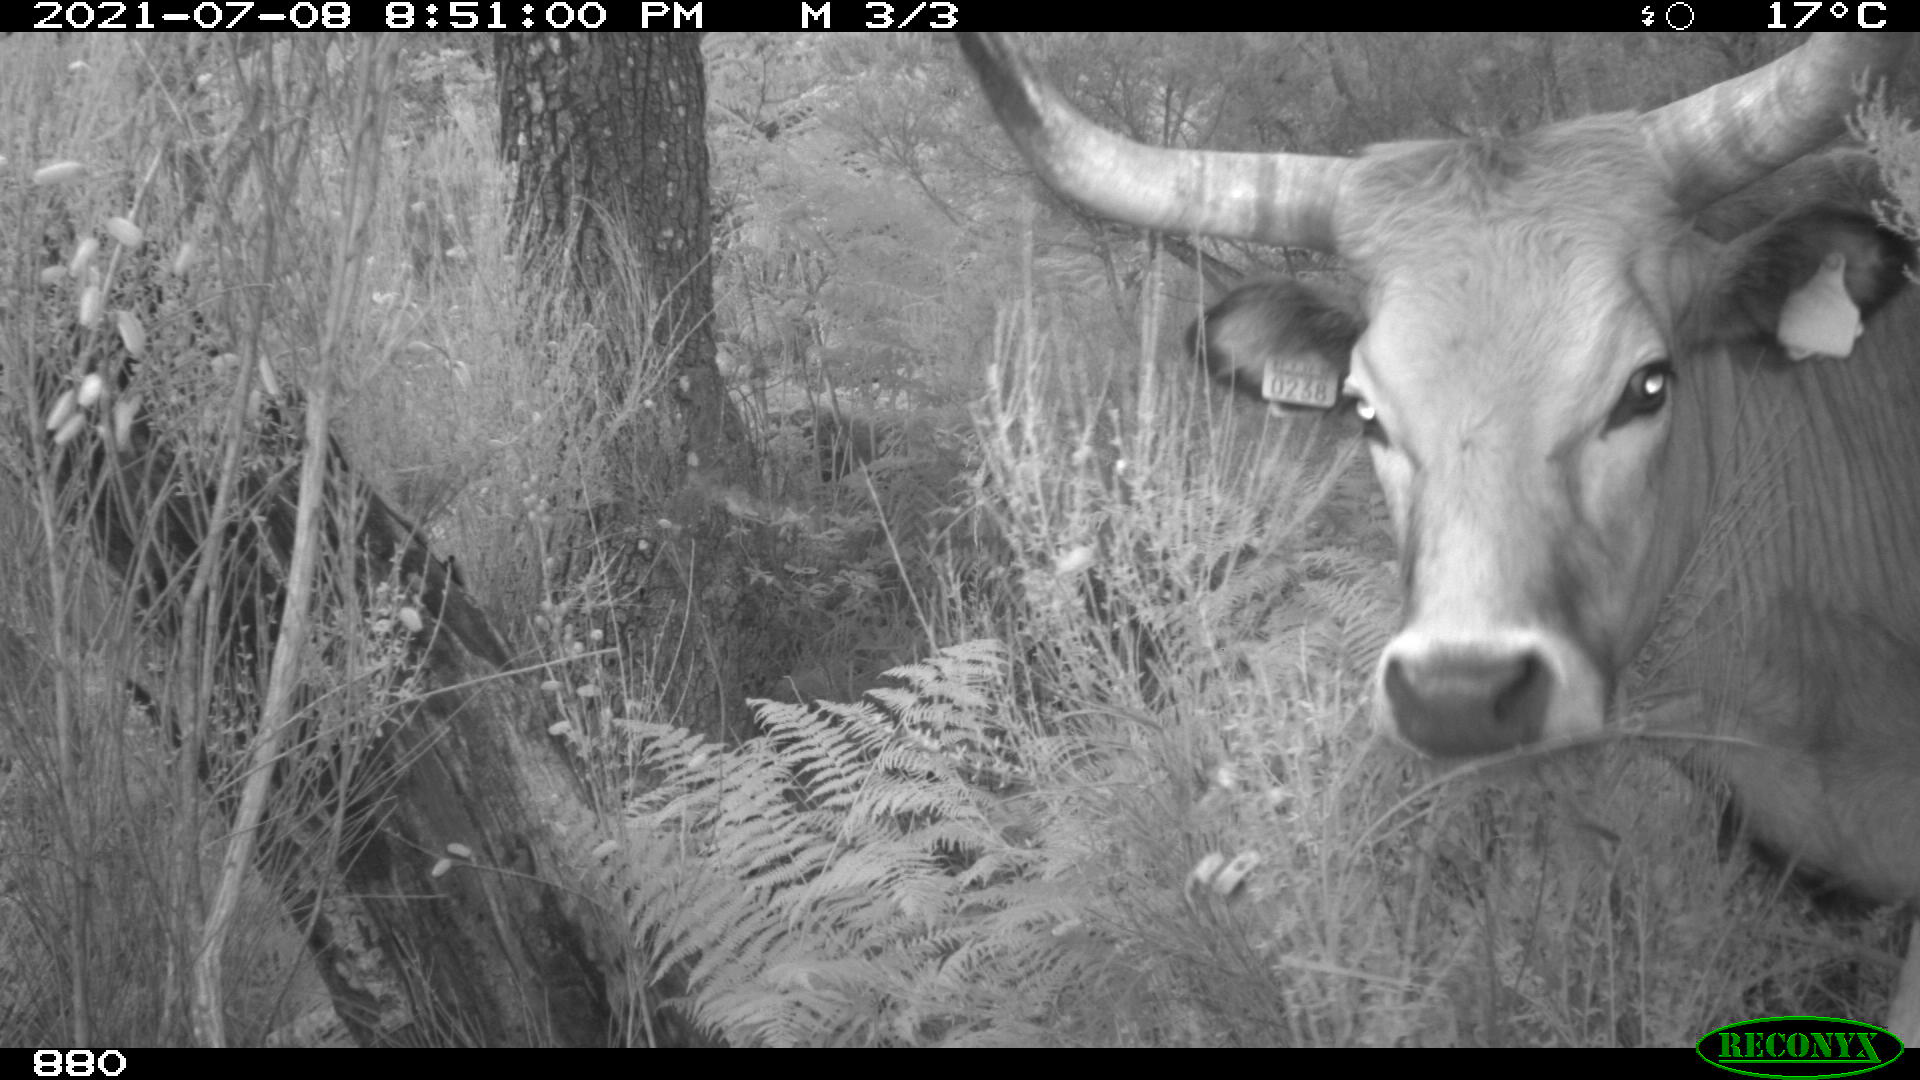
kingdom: Animalia
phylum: Chordata
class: Mammalia
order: Artiodactyla
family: Bovidae
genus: Bos
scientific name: Bos taurus
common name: Domesticated cattle
